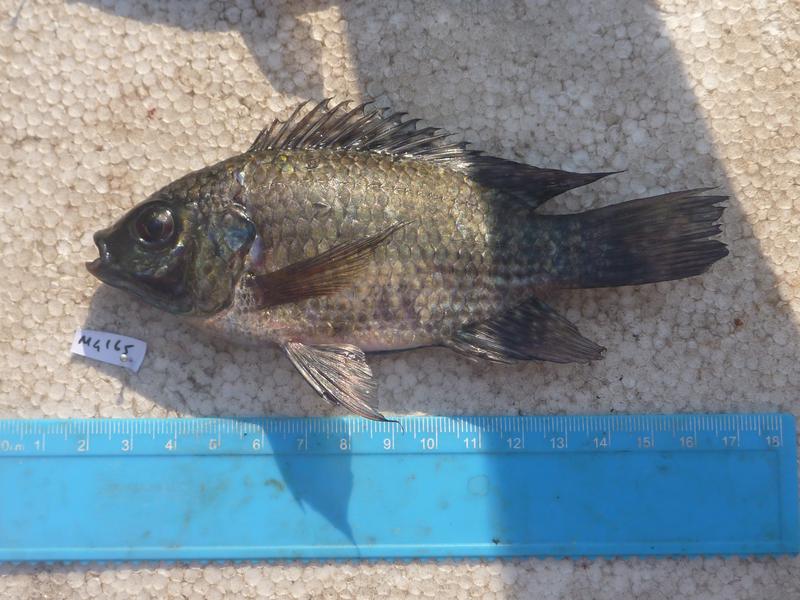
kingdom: Animalia
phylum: Chordata
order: Perciformes
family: Cichlidae
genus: Oreochromis
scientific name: Oreochromis leucostictus
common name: Blue spotted tilapia
